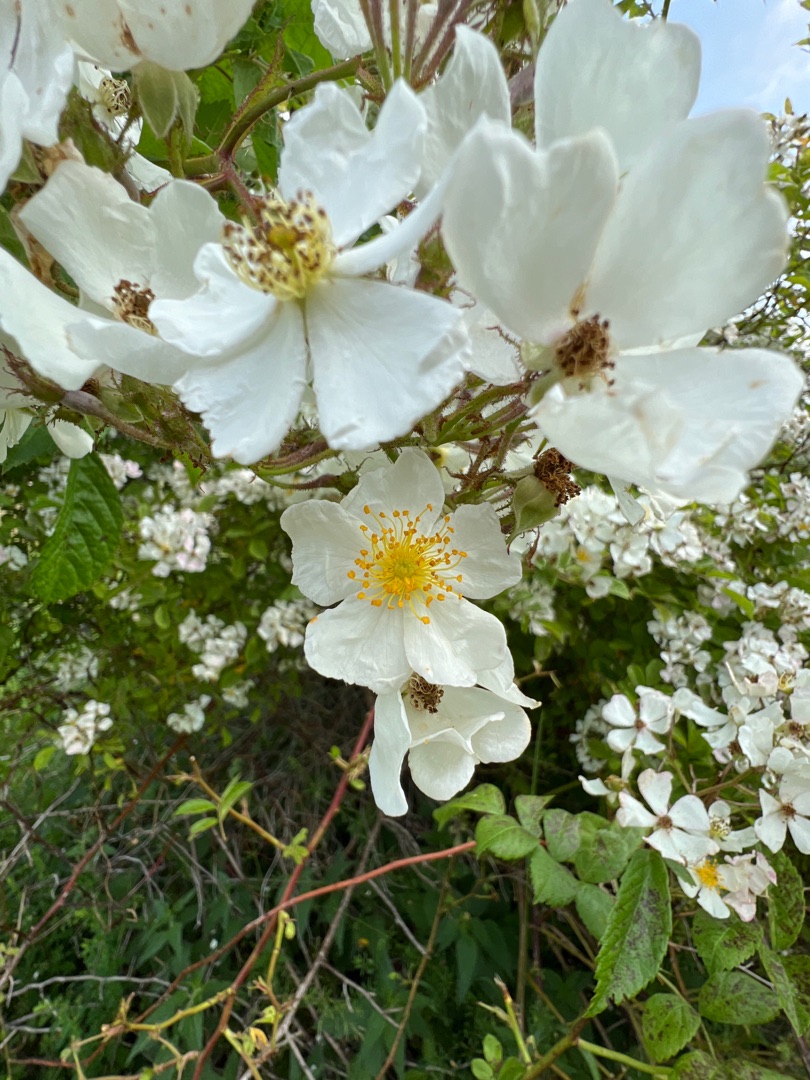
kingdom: Plantae
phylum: Tracheophyta
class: Magnoliopsida
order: Rosales
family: Rosaceae
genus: Rosa
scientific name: Rosa multiflora
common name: Mangeblomstret rose
